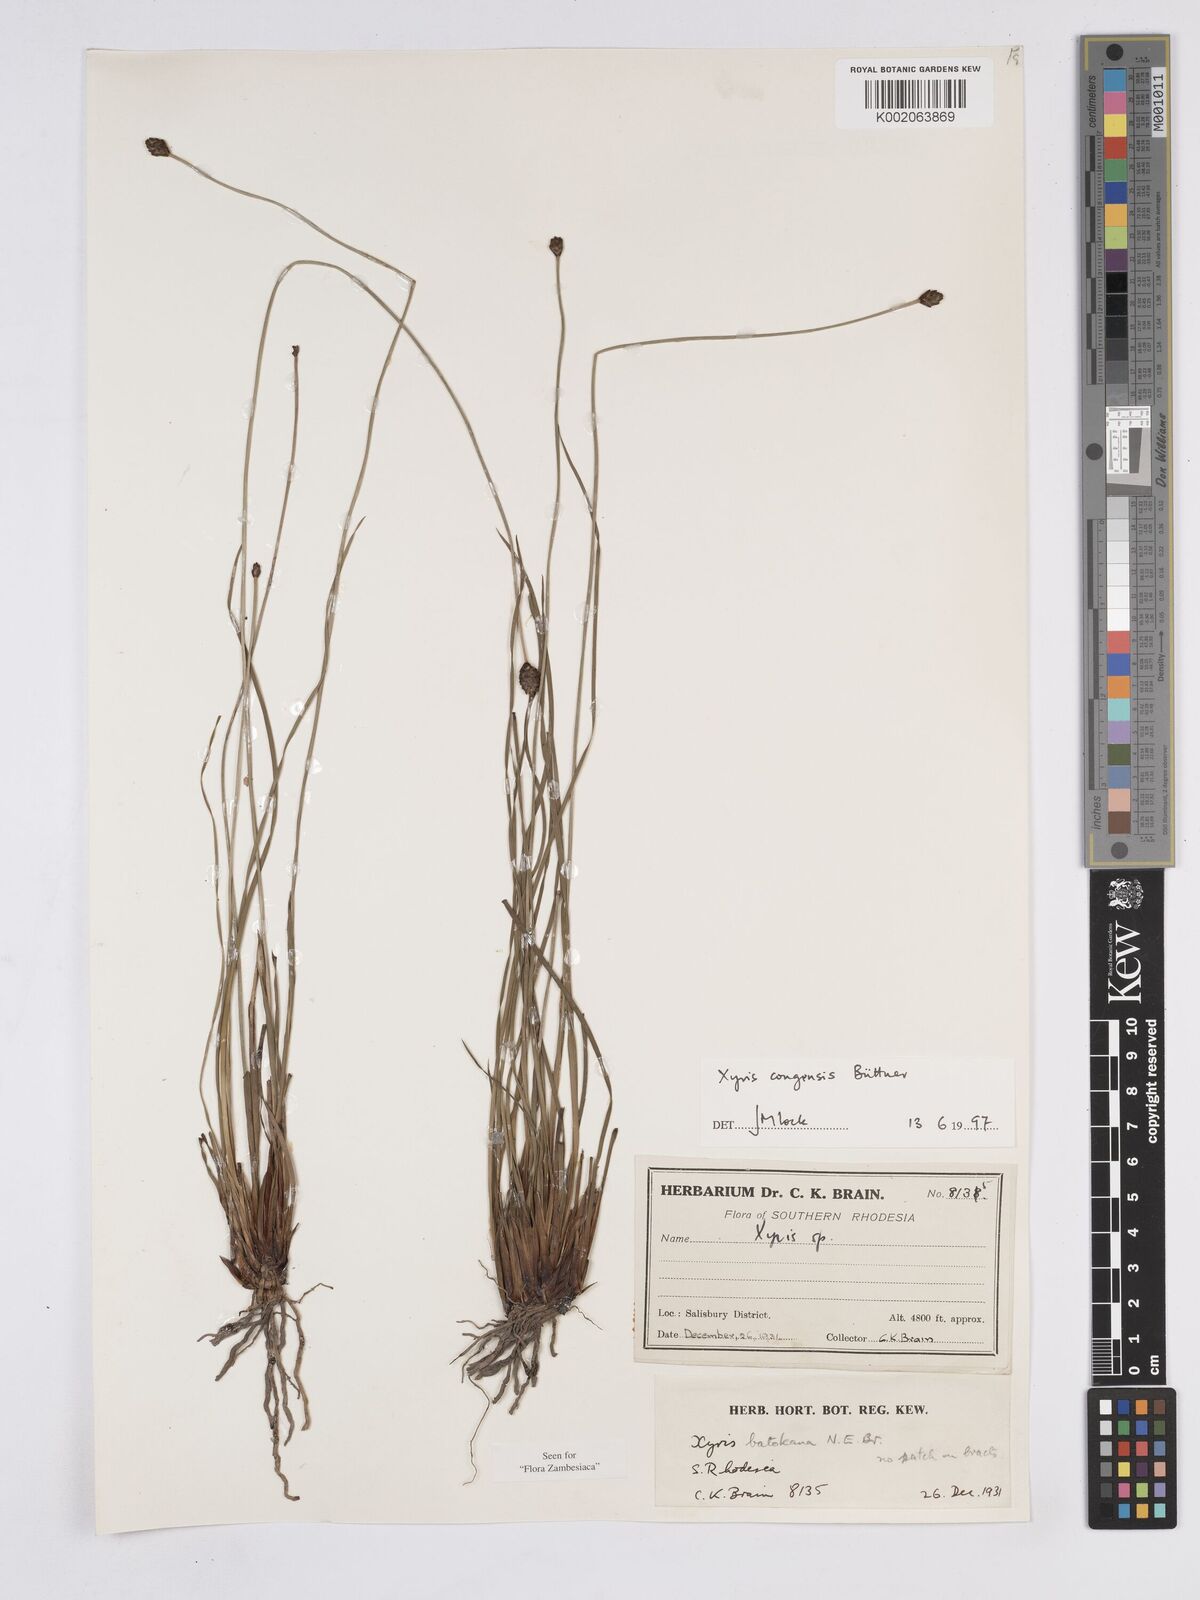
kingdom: Plantae
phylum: Tracheophyta
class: Liliopsida
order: Poales
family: Xyridaceae
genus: Xyris
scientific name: Xyris congensis
